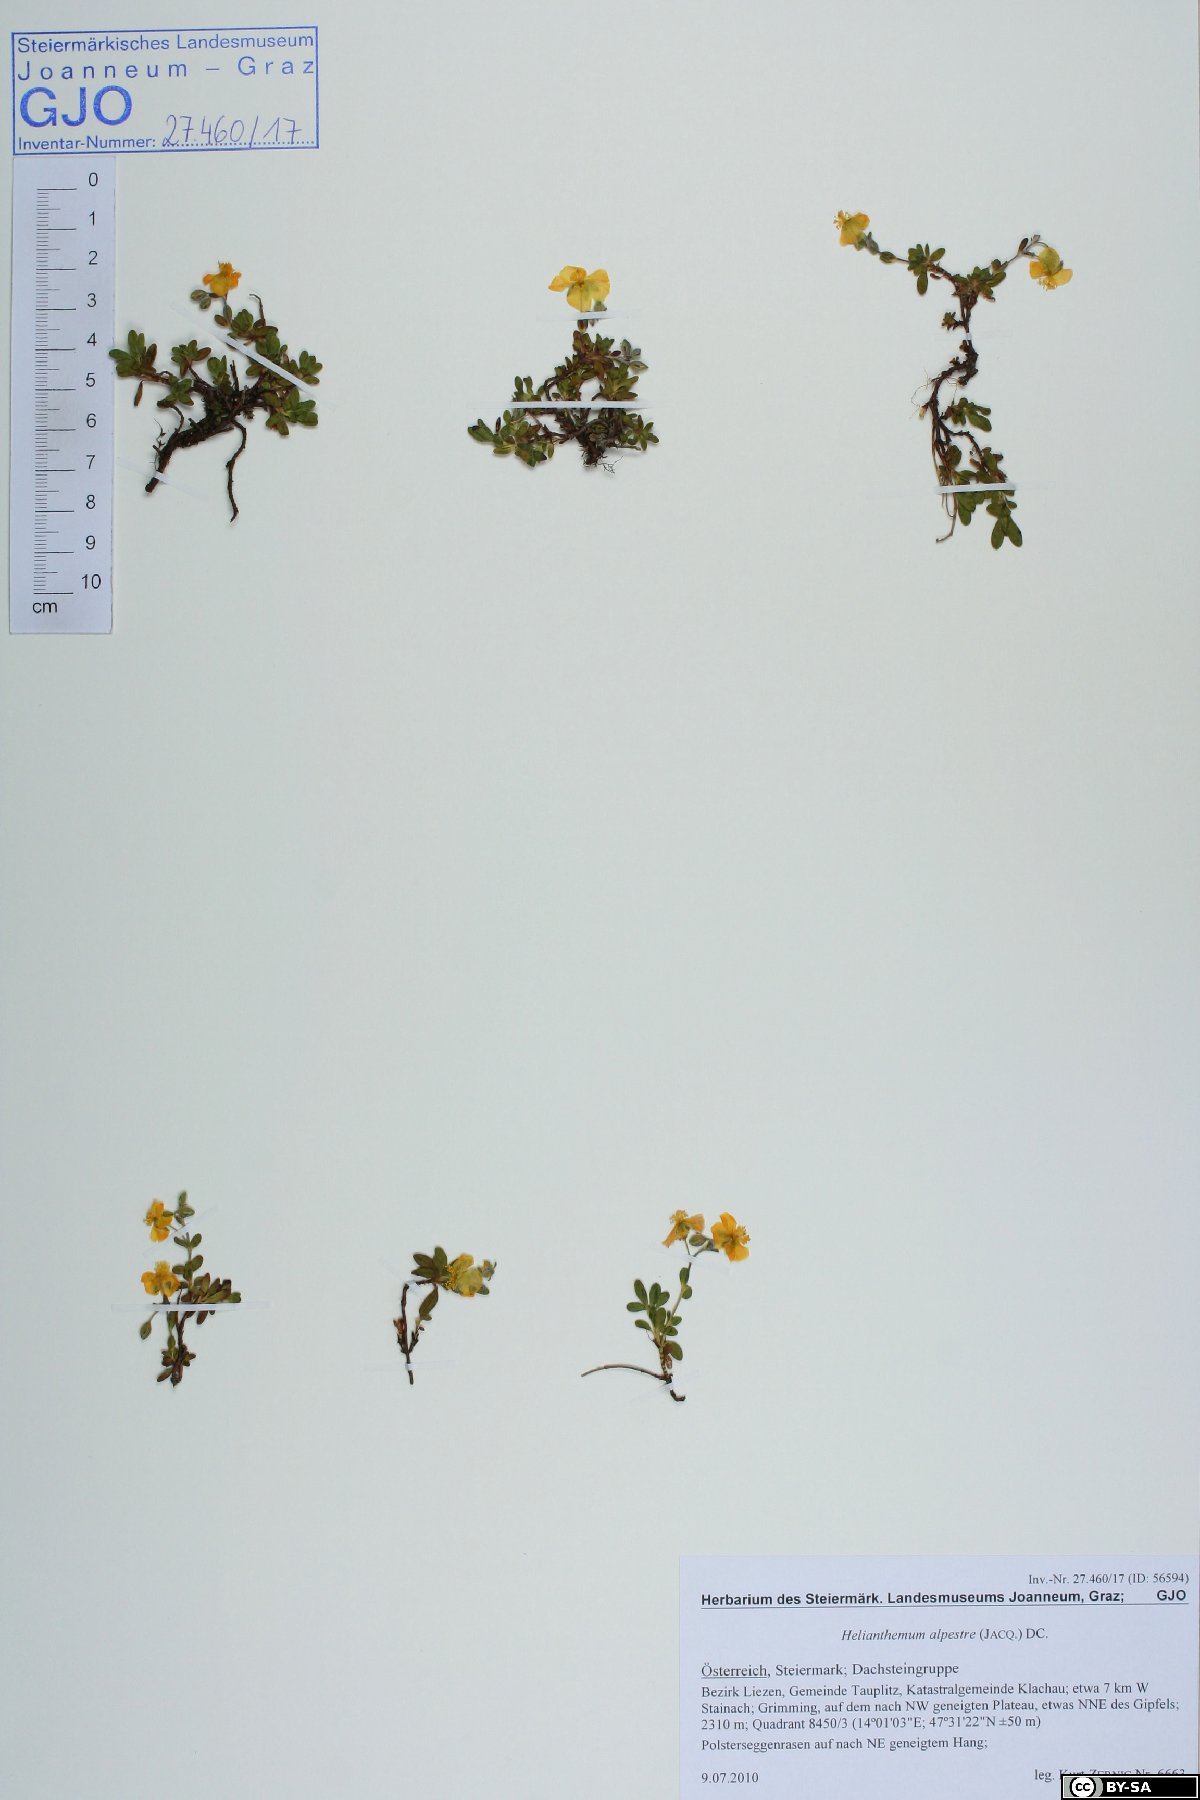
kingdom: Plantae
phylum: Tracheophyta
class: Magnoliopsida
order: Malvales
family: Cistaceae
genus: Helianthemum
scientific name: Helianthemum alpestre
